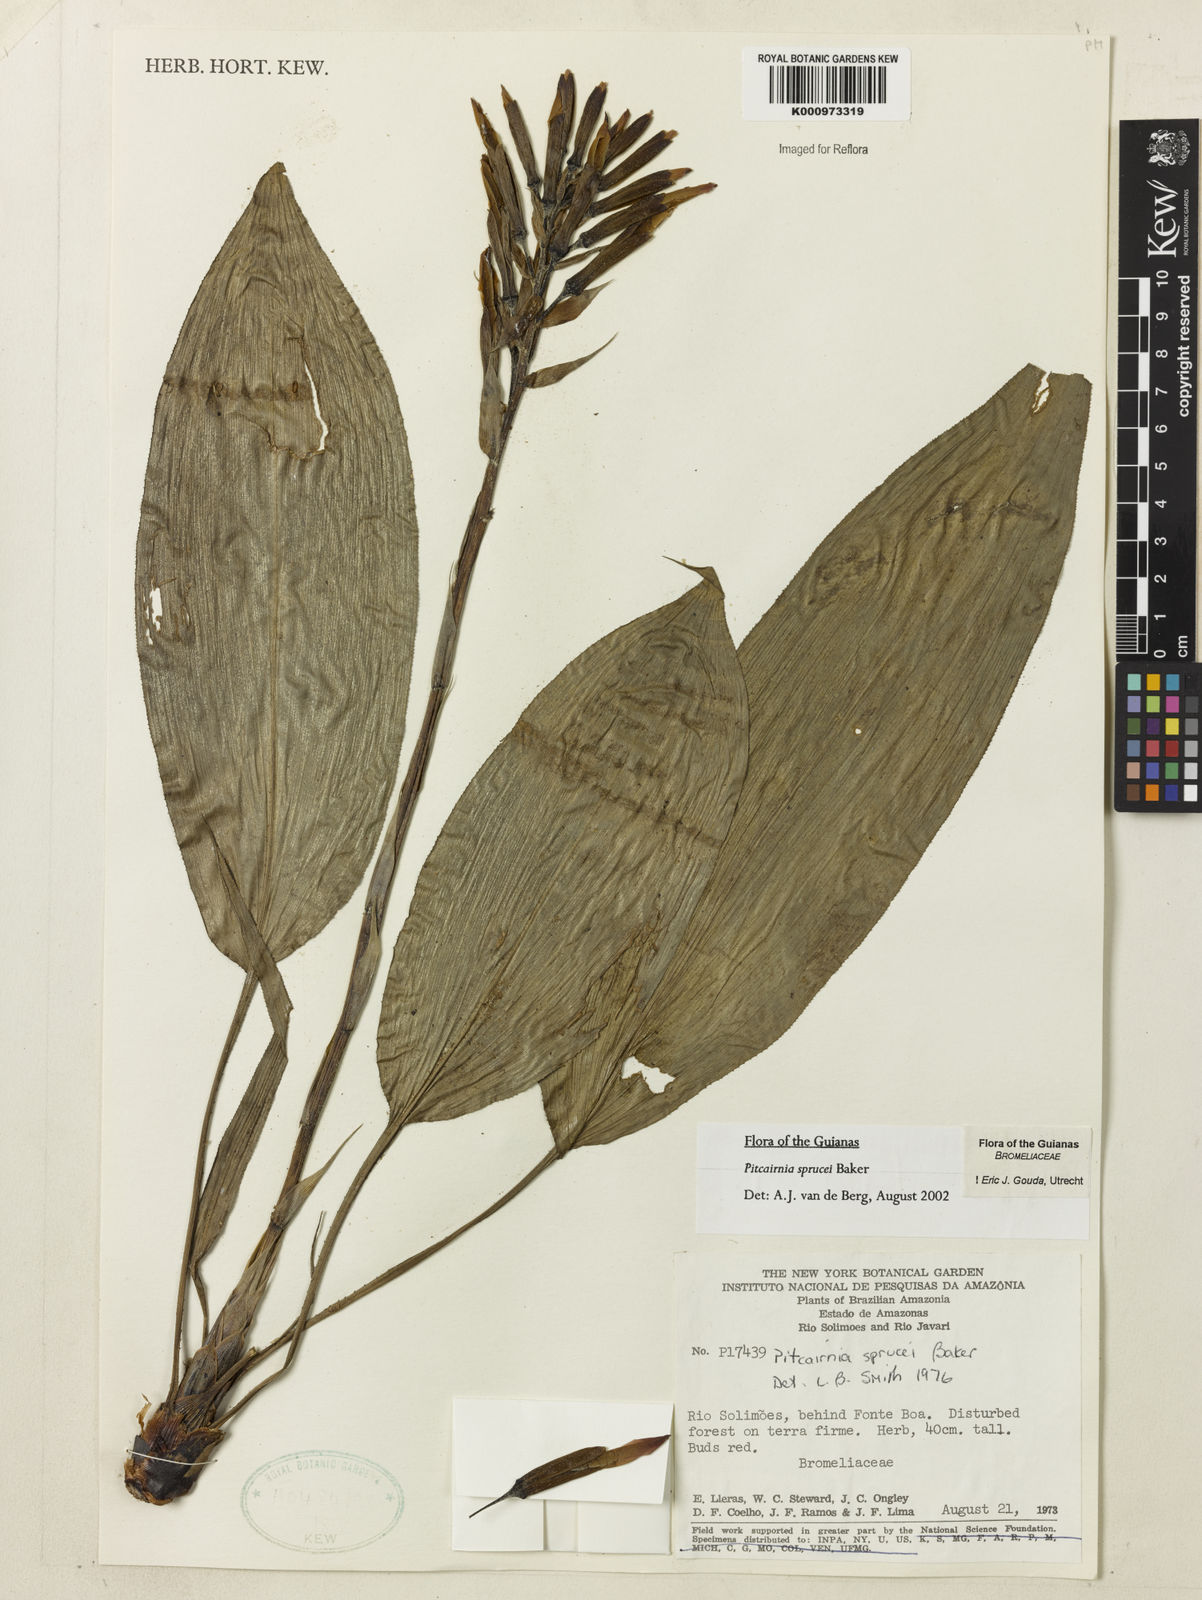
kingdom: Plantae
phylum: Tracheophyta
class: Liliopsida
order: Poales
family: Bromeliaceae
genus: Pitcairnia
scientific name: Pitcairnia sprucei
